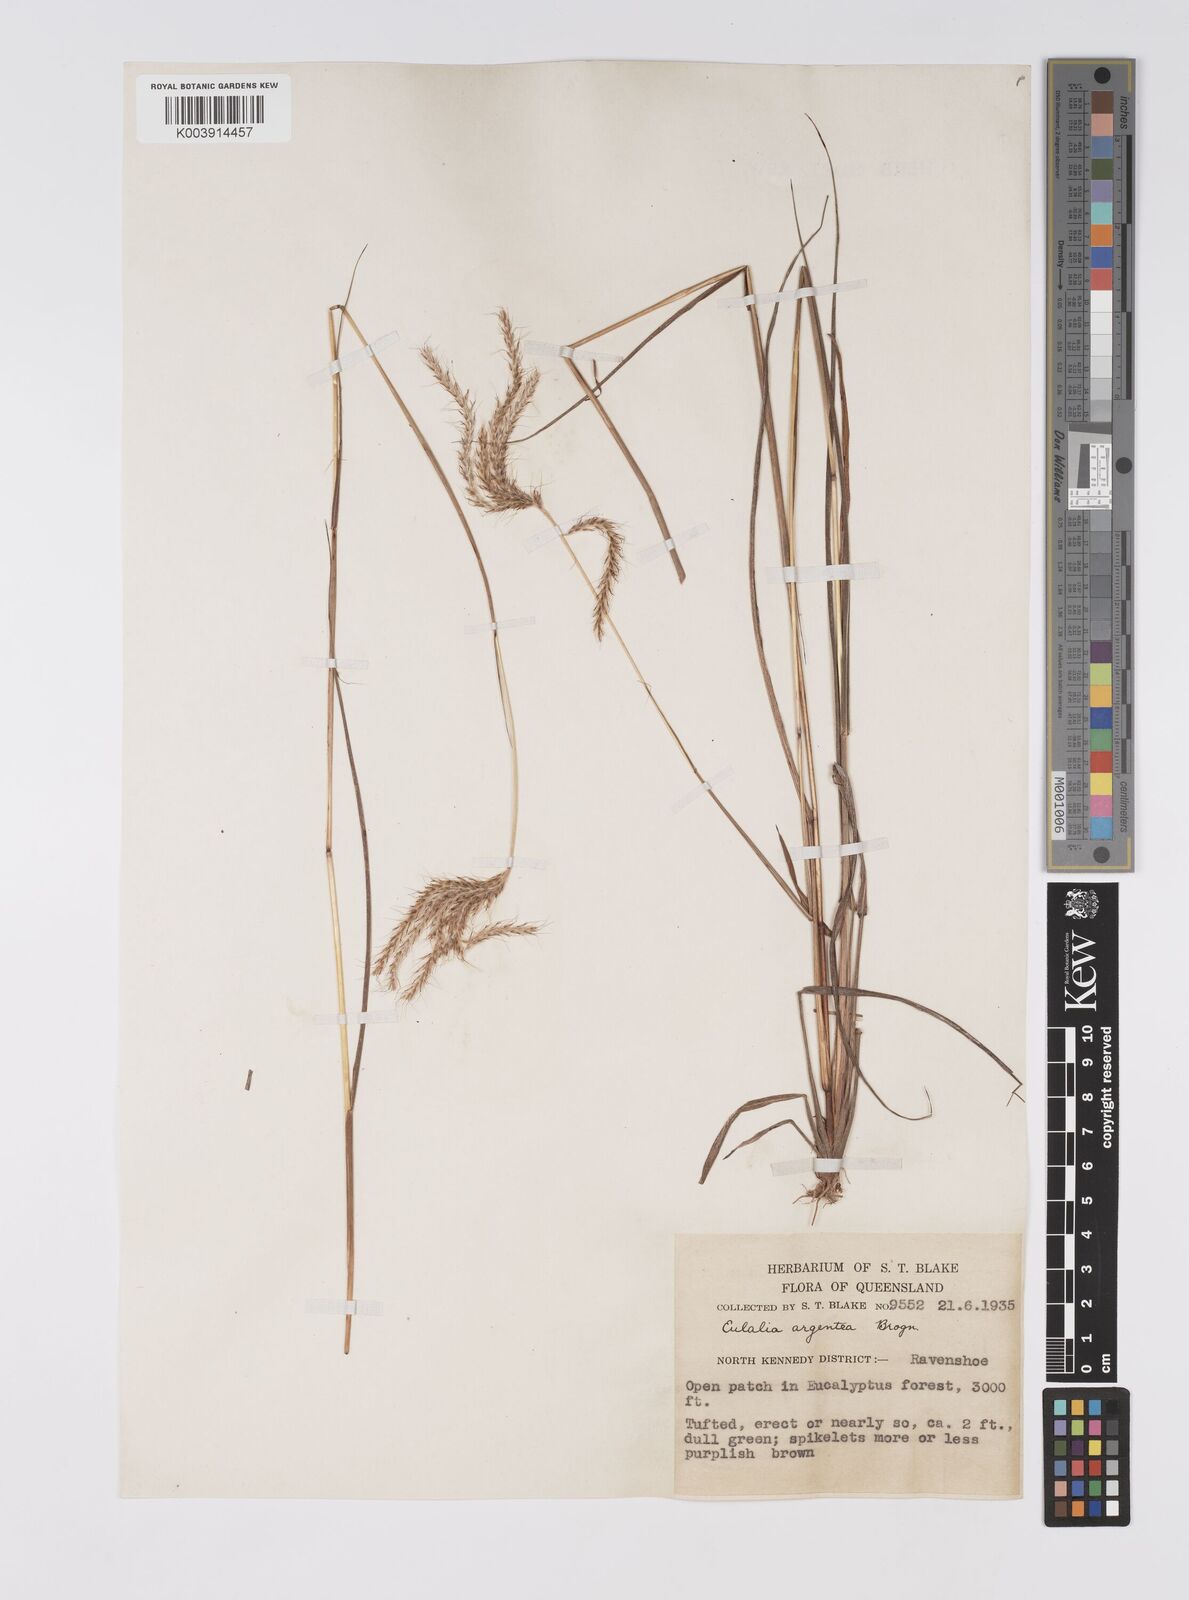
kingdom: Plantae
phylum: Tracheophyta
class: Liliopsida
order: Poales
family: Poaceae
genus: Pseudopogonatherum
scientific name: Pseudopogonatherum trispicatum
